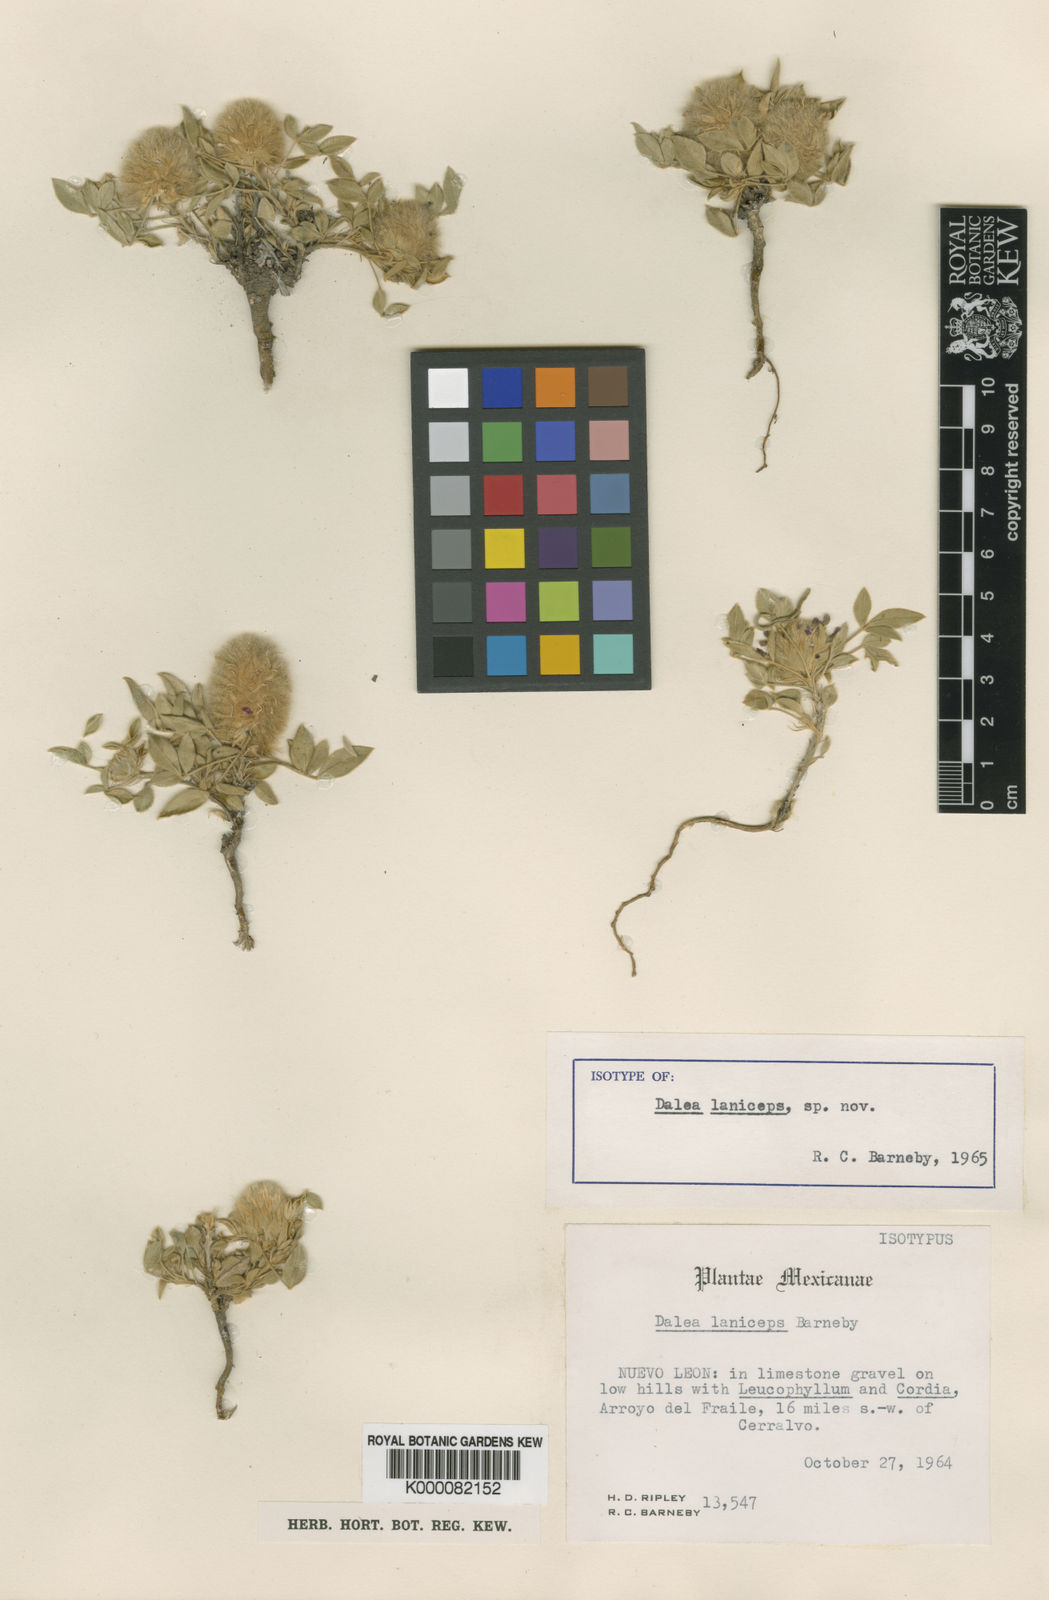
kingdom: Plantae
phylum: Tracheophyta
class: Magnoliopsida
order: Fabales
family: Fabaceae
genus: Dalea
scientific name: Dalea laniceps
